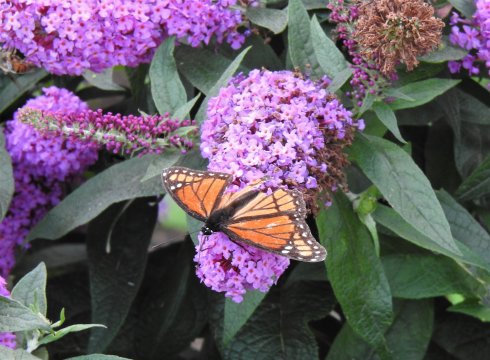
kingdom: Animalia
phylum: Arthropoda
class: Insecta
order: Lepidoptera
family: Nymphalidae
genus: Limenitis
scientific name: Limenitis archippus
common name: Viceroy
